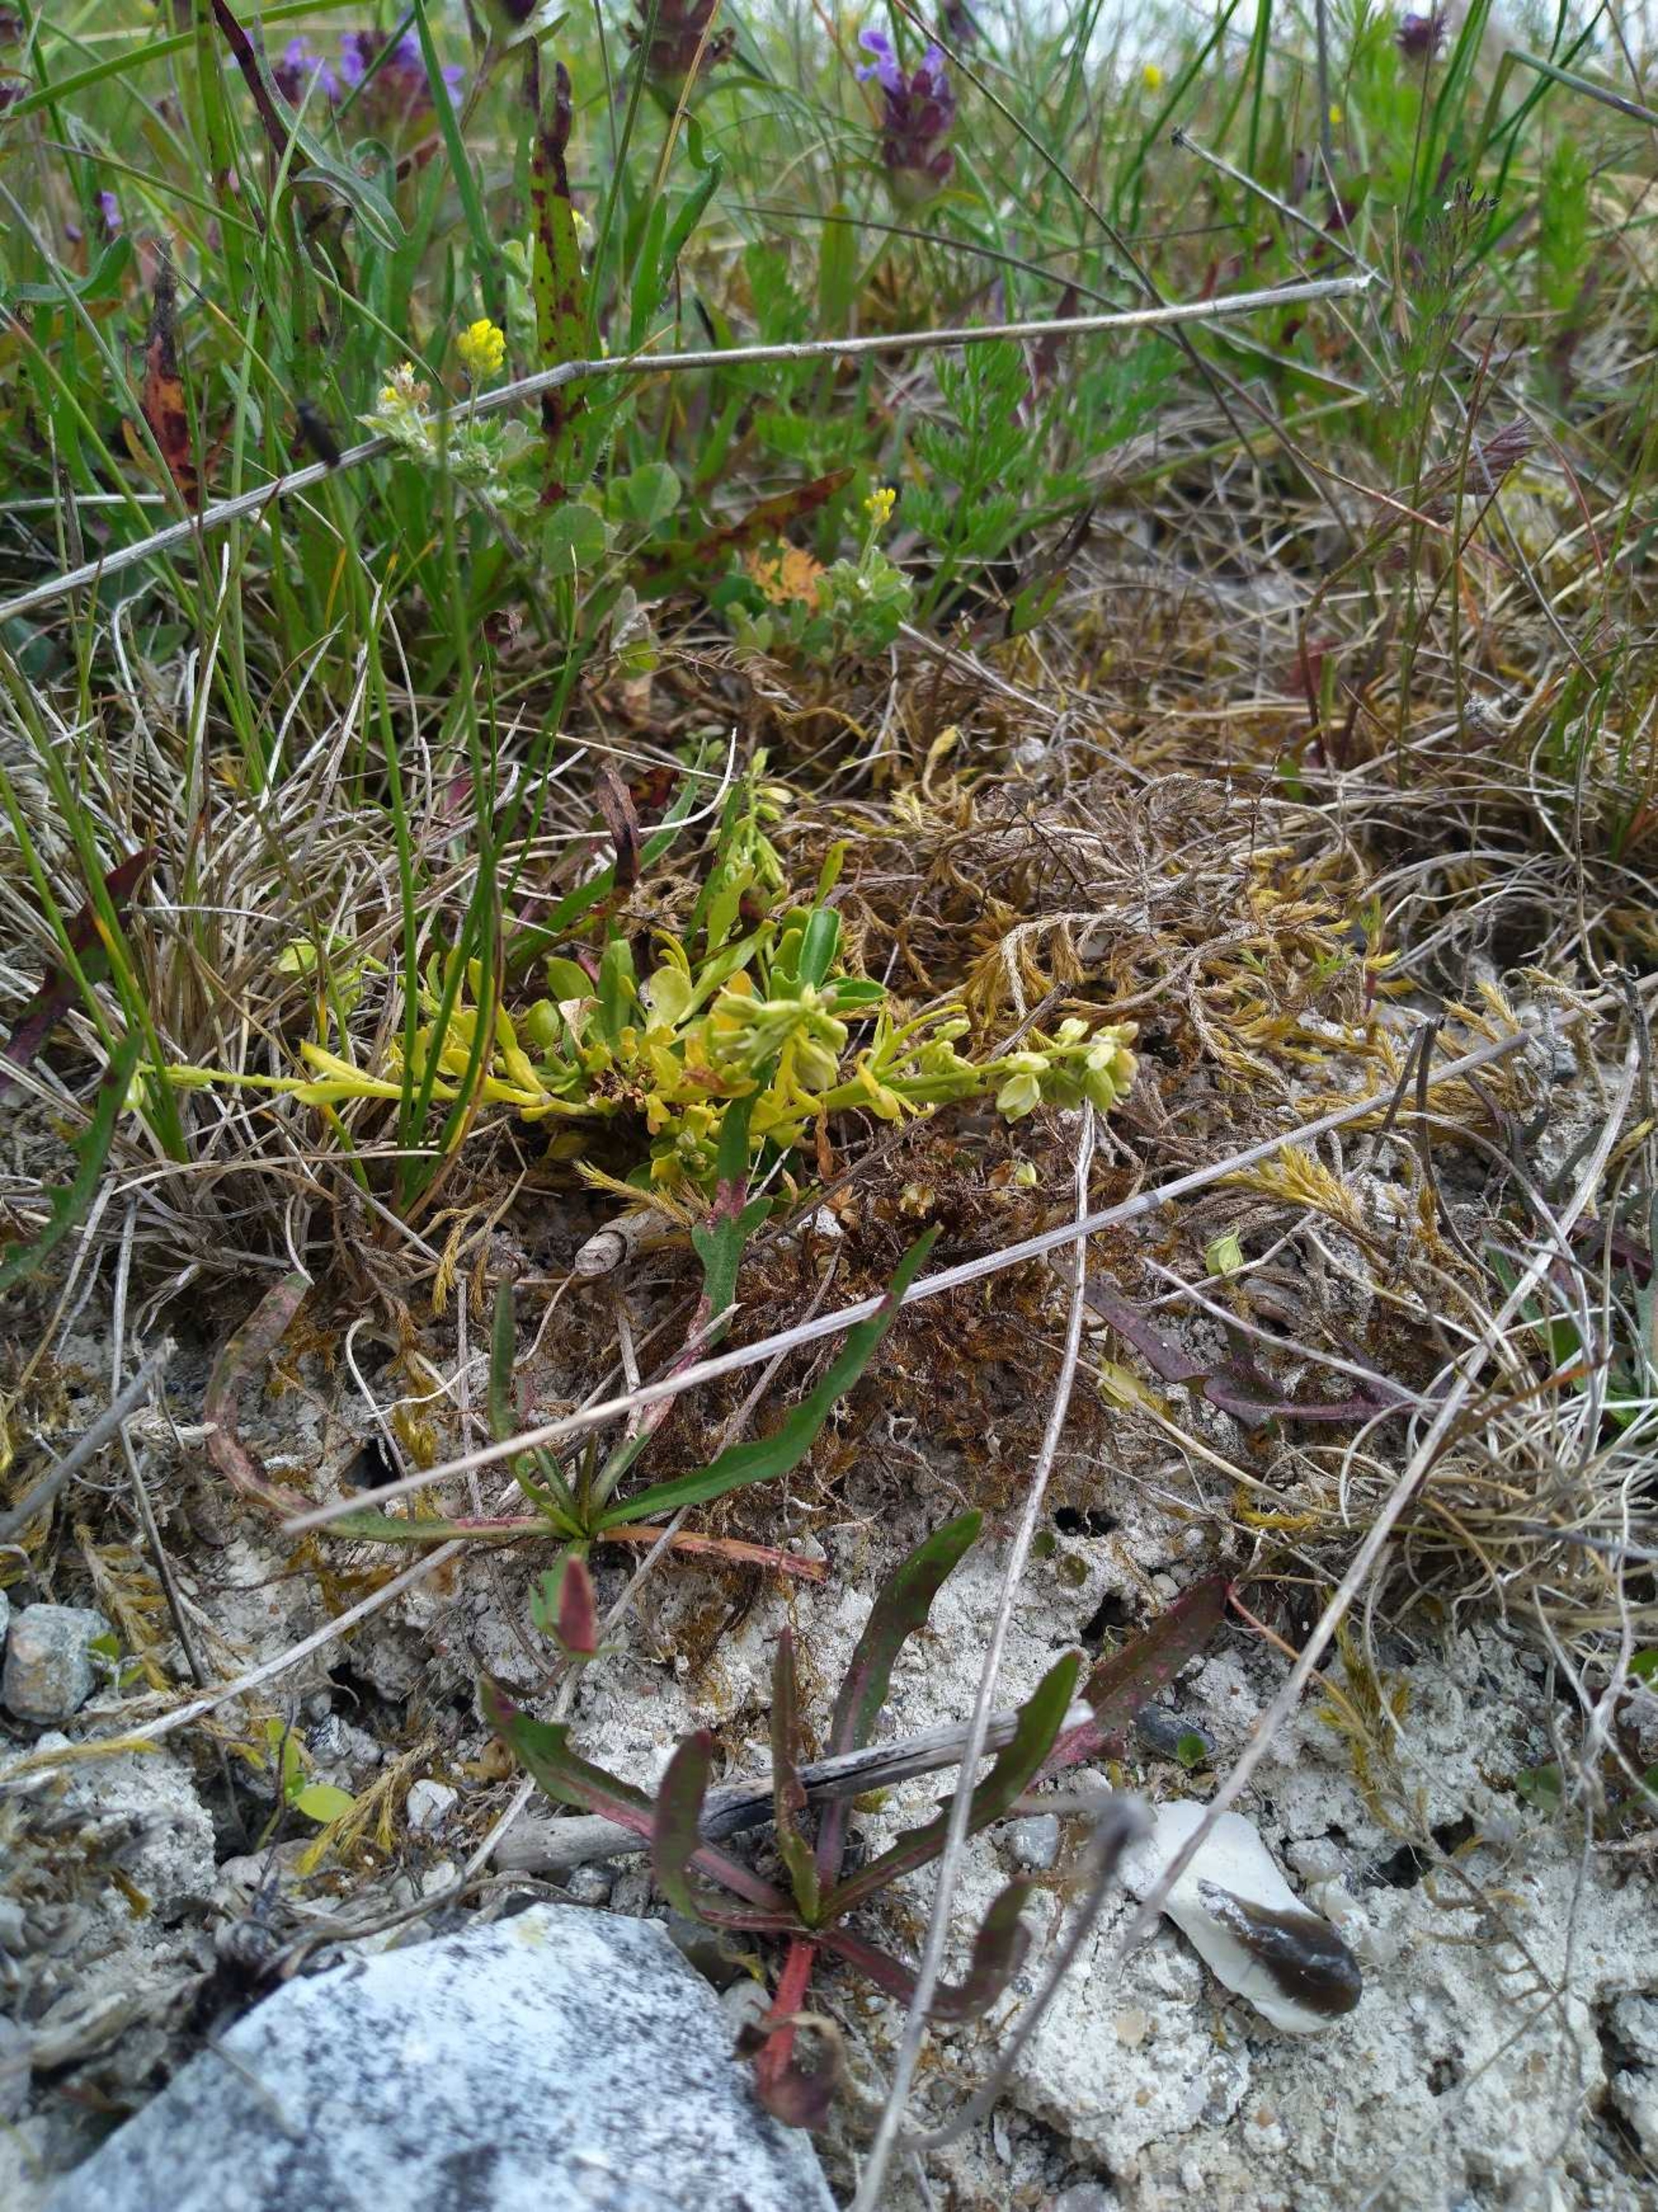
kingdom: Plantae
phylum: Tracheophyta
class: Magnoliopsida
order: Fabales
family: Polygalaceae
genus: Polygala
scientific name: Polygala amarella
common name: Bitter mælkeurt
